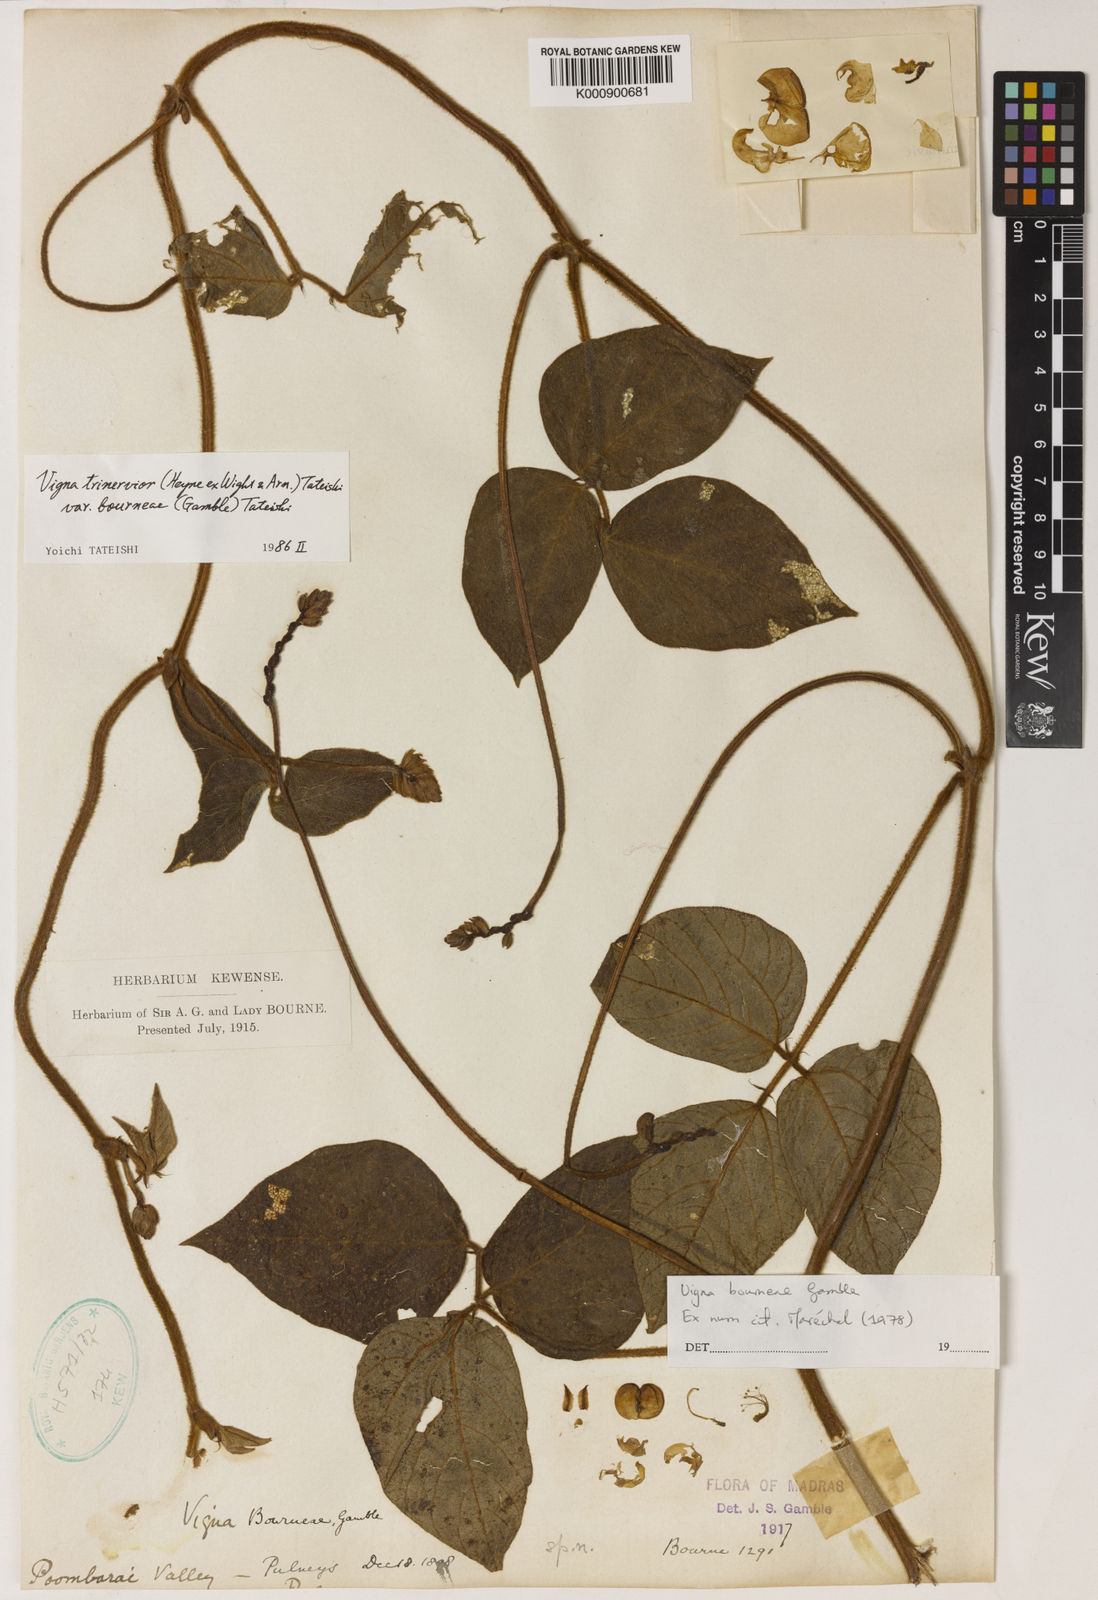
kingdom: Plantae
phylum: Tracheophyta
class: Magnoliopsida
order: Fabales
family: Fabaceae
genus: Vigna
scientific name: Vigna
